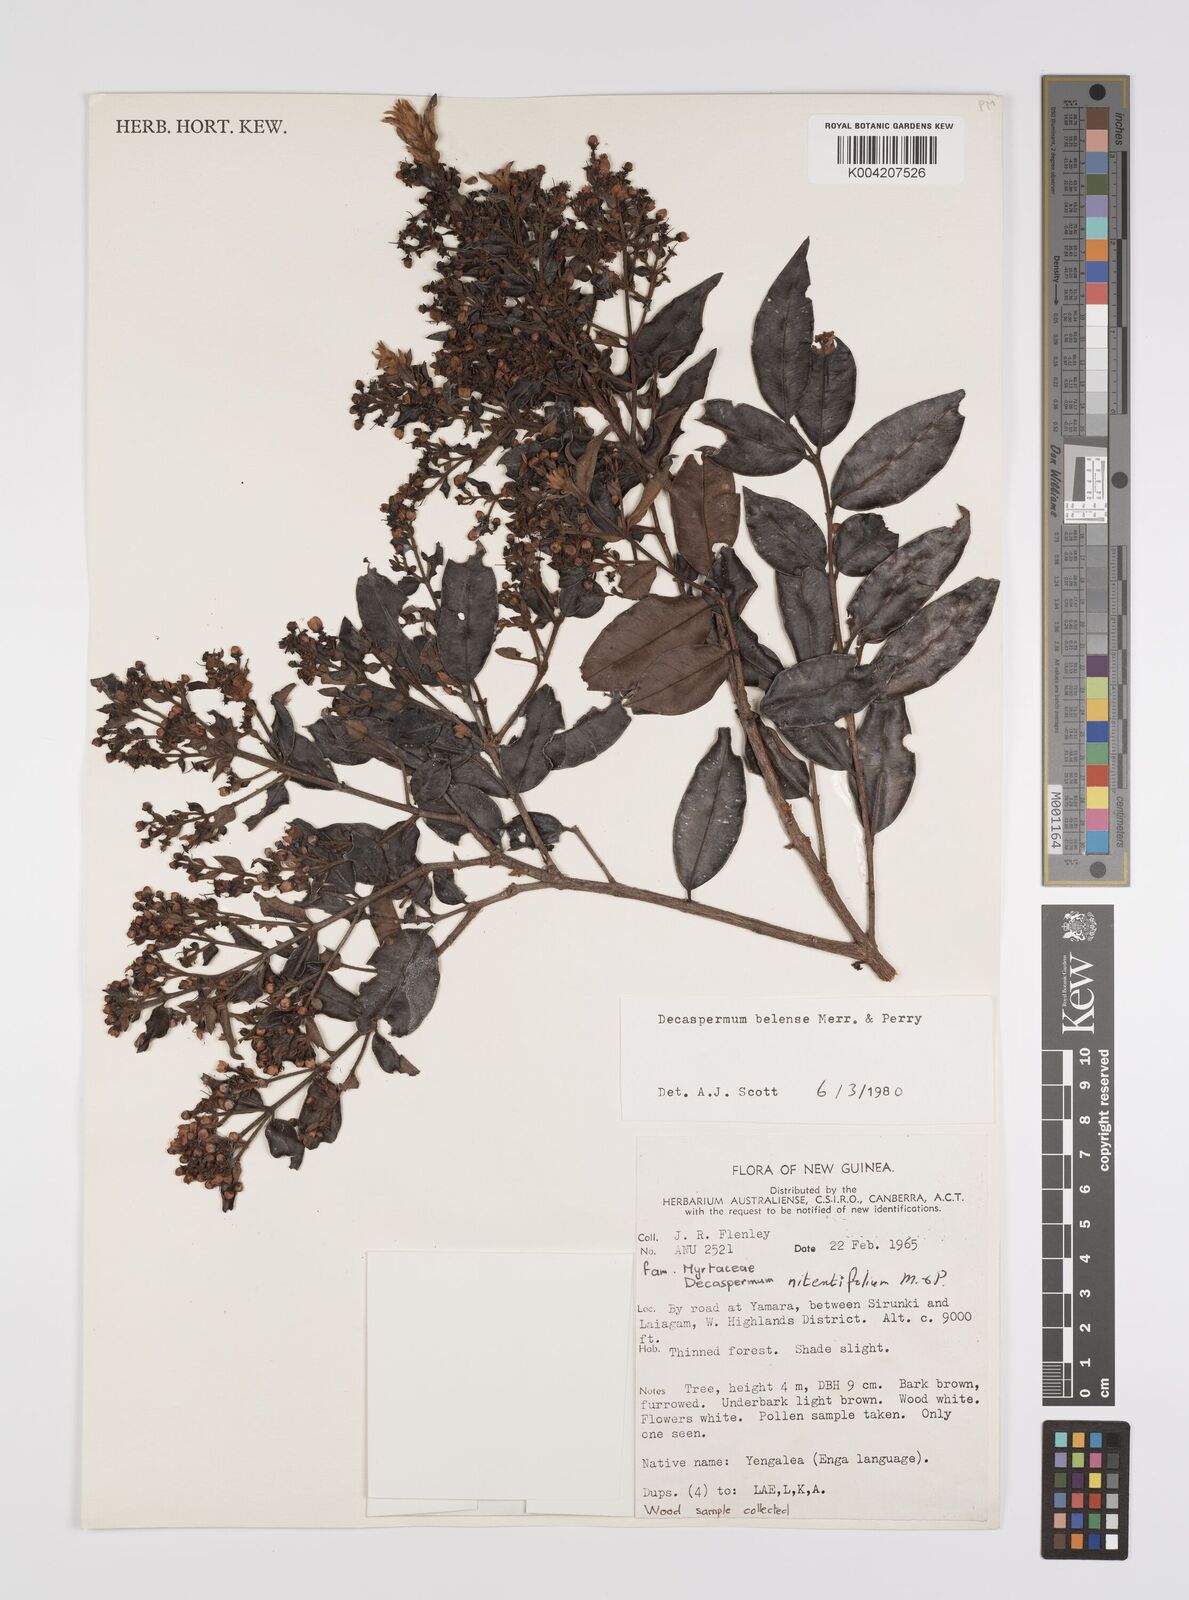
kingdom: Plantae
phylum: Tracheophyta
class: Magnoliopsida
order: Myrtales
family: Myrtaceae
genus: Decaspermum
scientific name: Decaspermum belense
